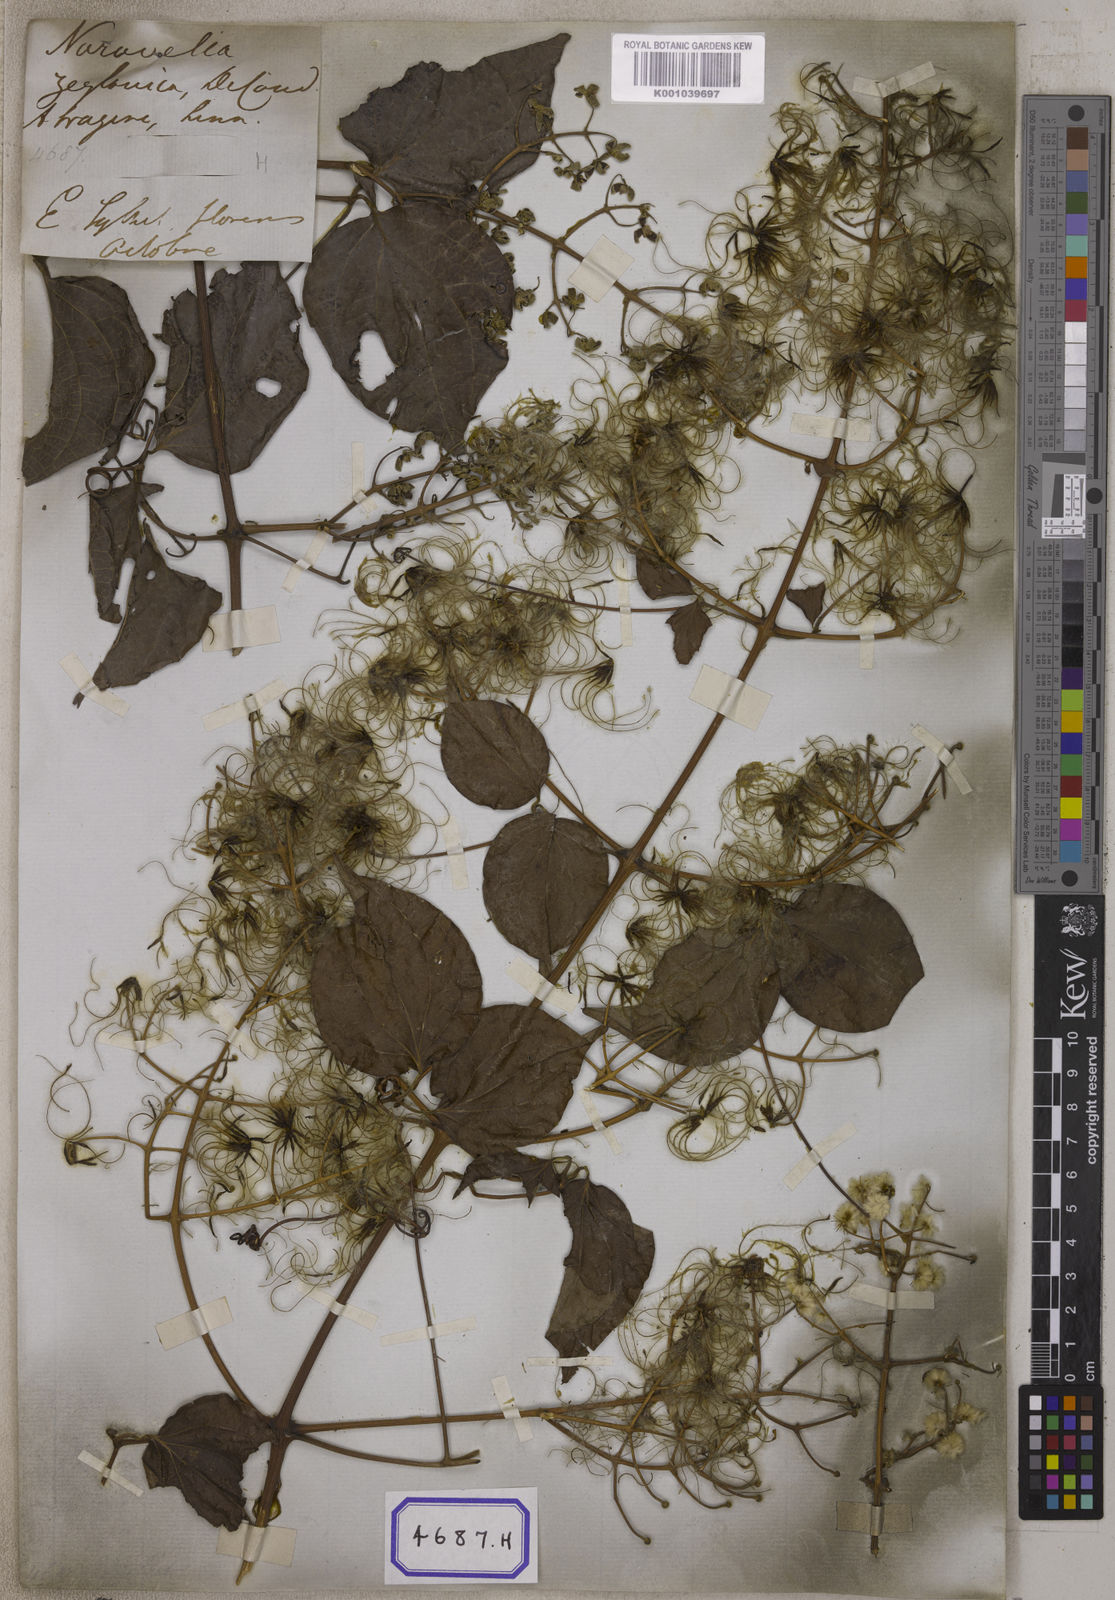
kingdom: Plantae
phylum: Tracheophyta
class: Magnoliopsida
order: Ranunculales
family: Ranunculaceae
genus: Clematis
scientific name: Clematis zeylanica
